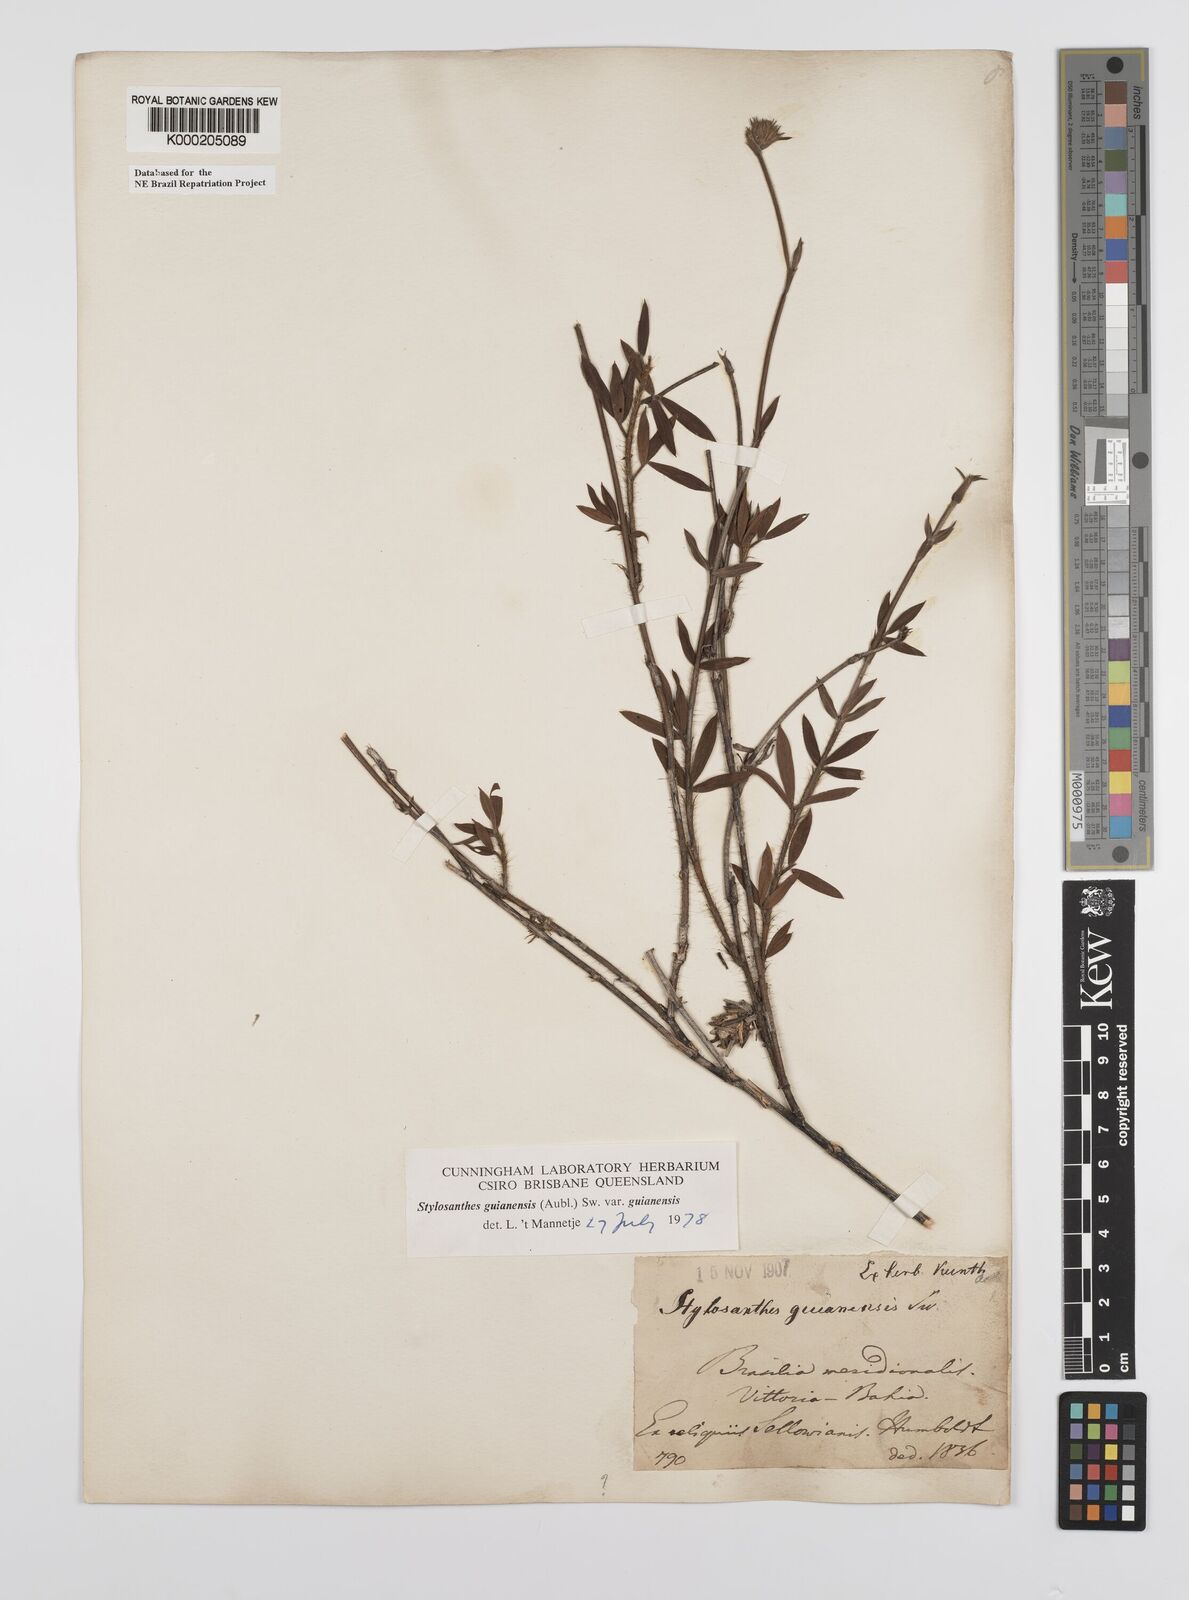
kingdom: Plantae
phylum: Tracheophyta
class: Magnoliopsida
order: Fabales
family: Fabaceae
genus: Stylosanthes
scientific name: Stylosanthes guianensis
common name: Pencil flower
